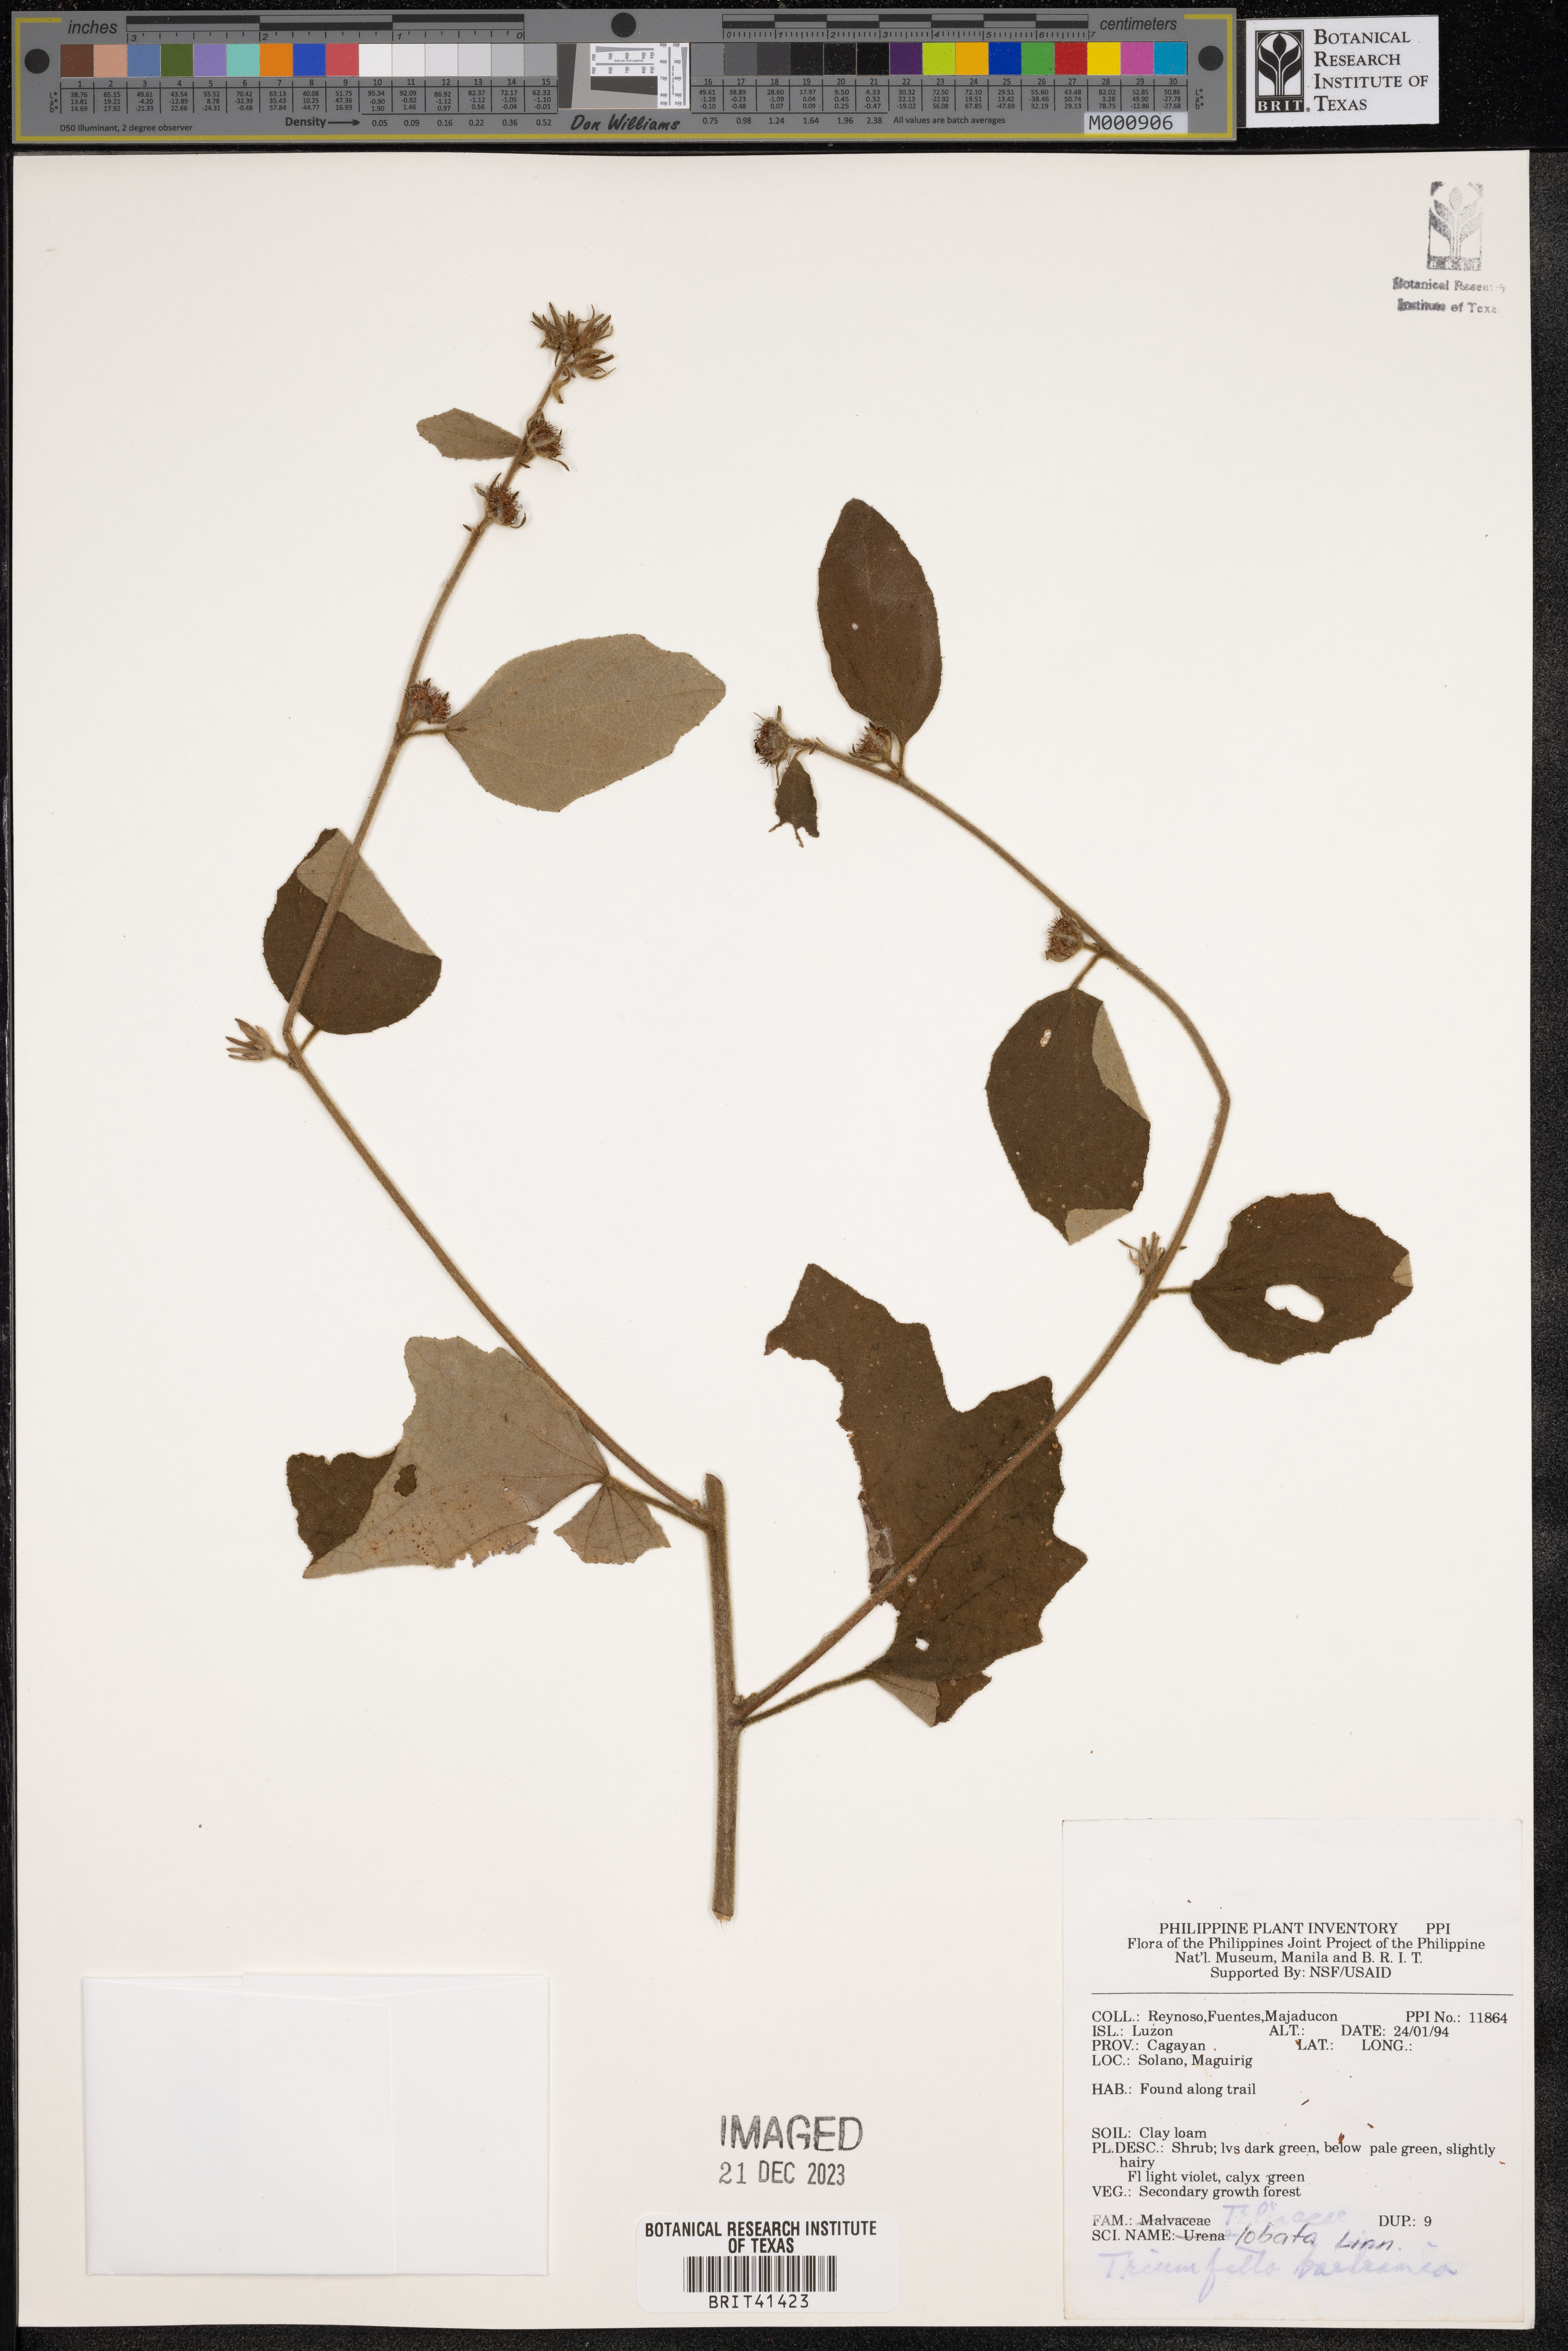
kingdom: Plantae
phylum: Tracheophyta
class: Magnoliopsida
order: Malvales
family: Malvaceae
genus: Triumfetta
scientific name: Triumfetta rhomboidea
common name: Diamond burbark
